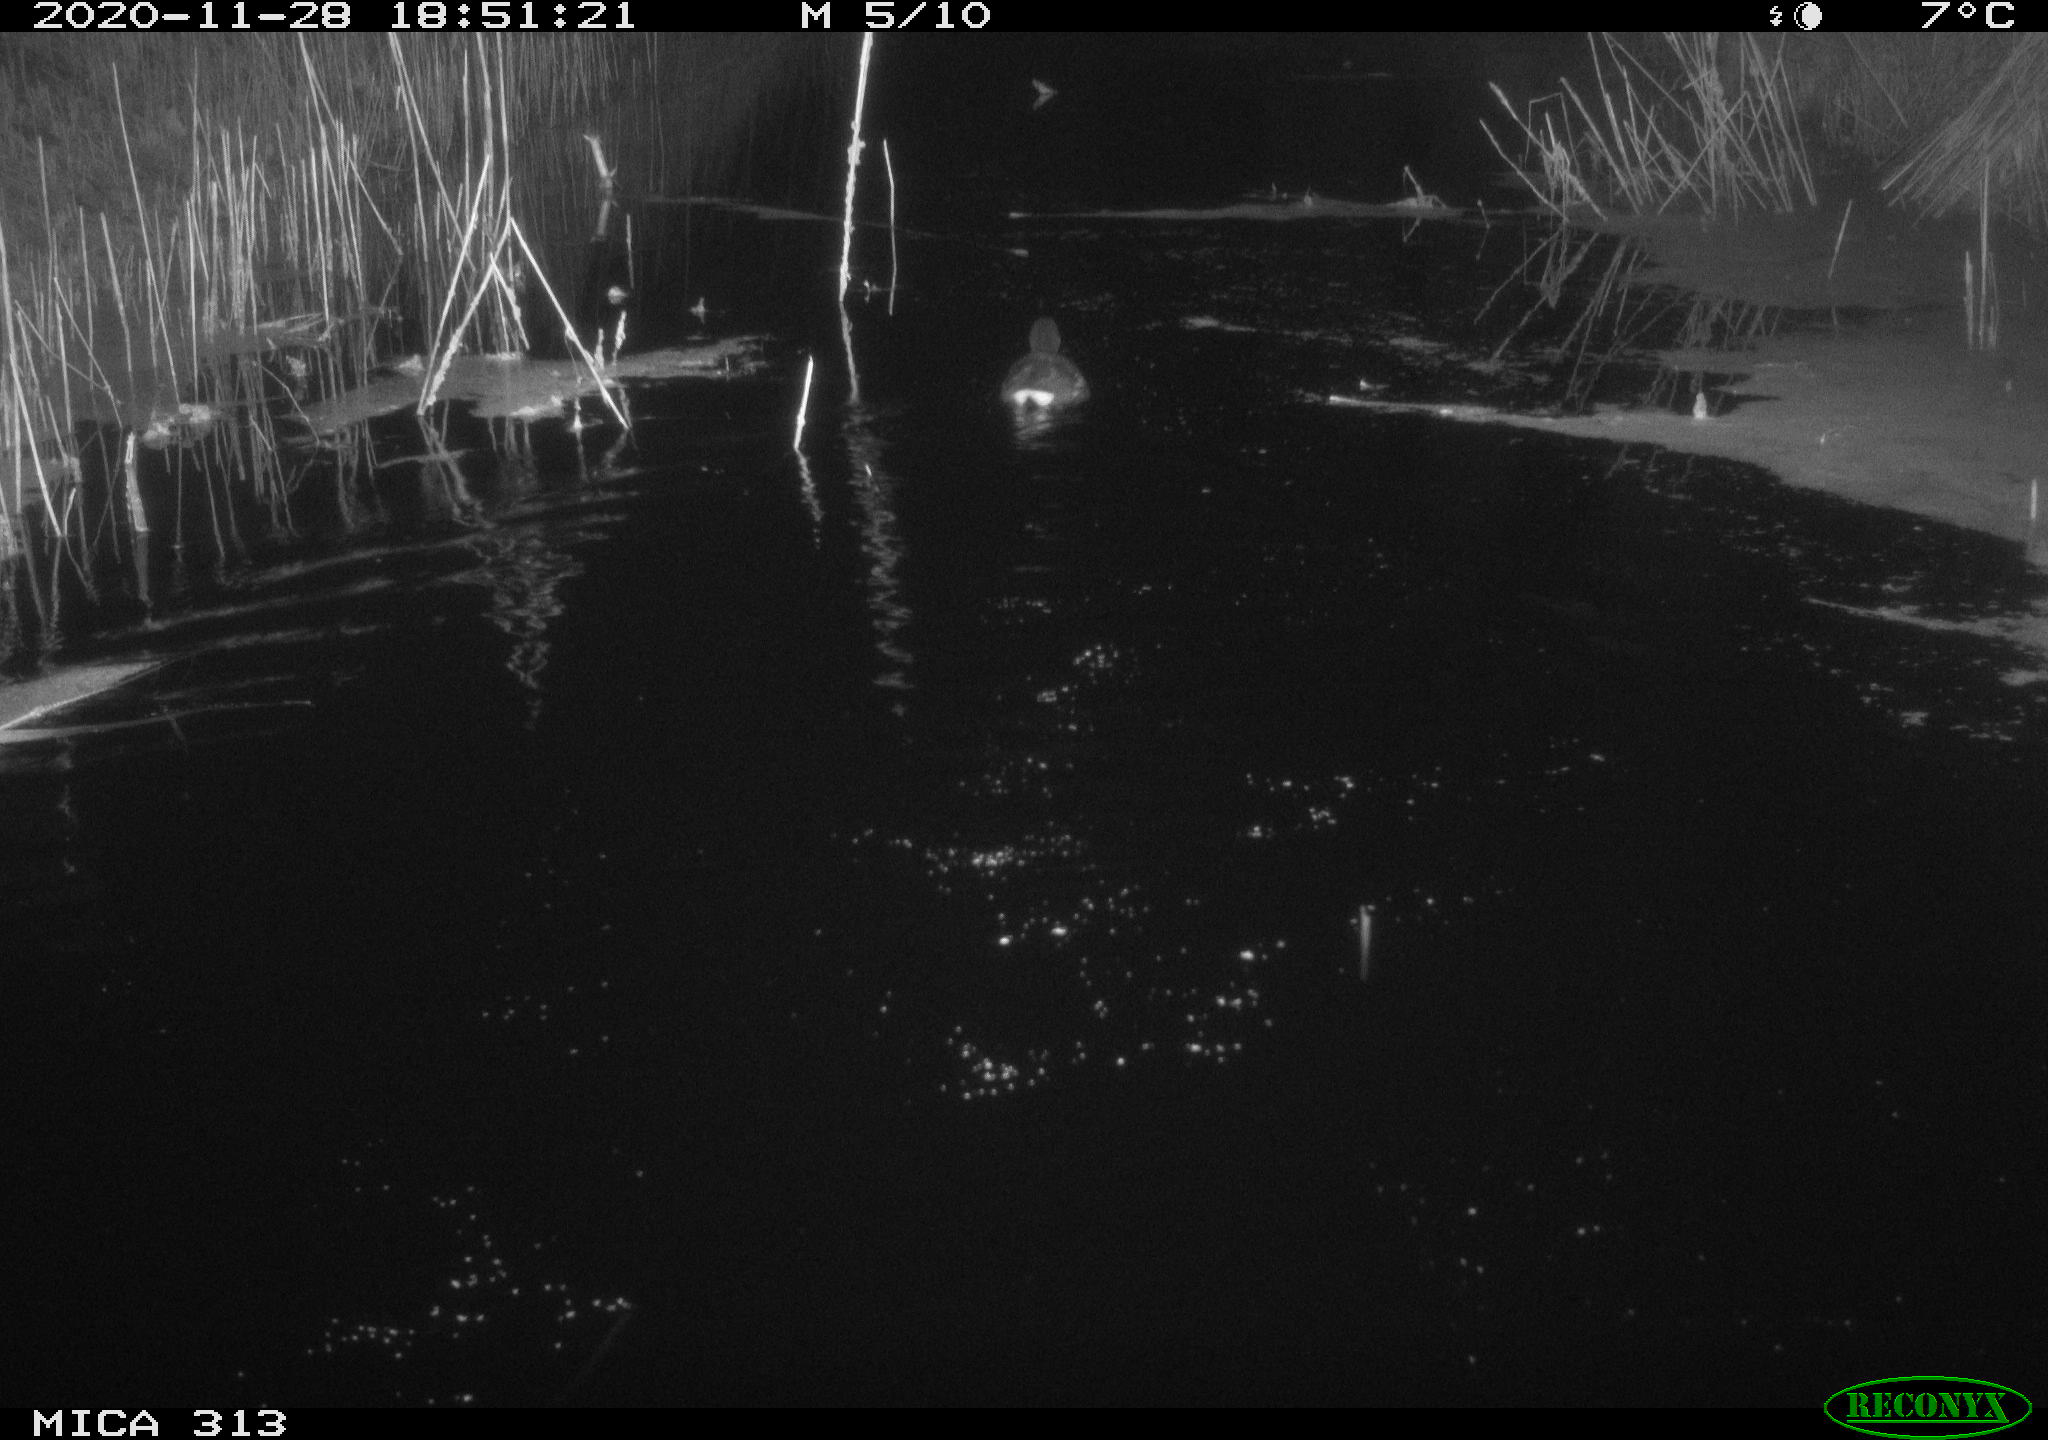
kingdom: Animalia
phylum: Chordata
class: Aves
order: Gruiformes
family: Rallidae
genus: Gallinula
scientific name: Gallinula chloropus
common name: Common moorhen
